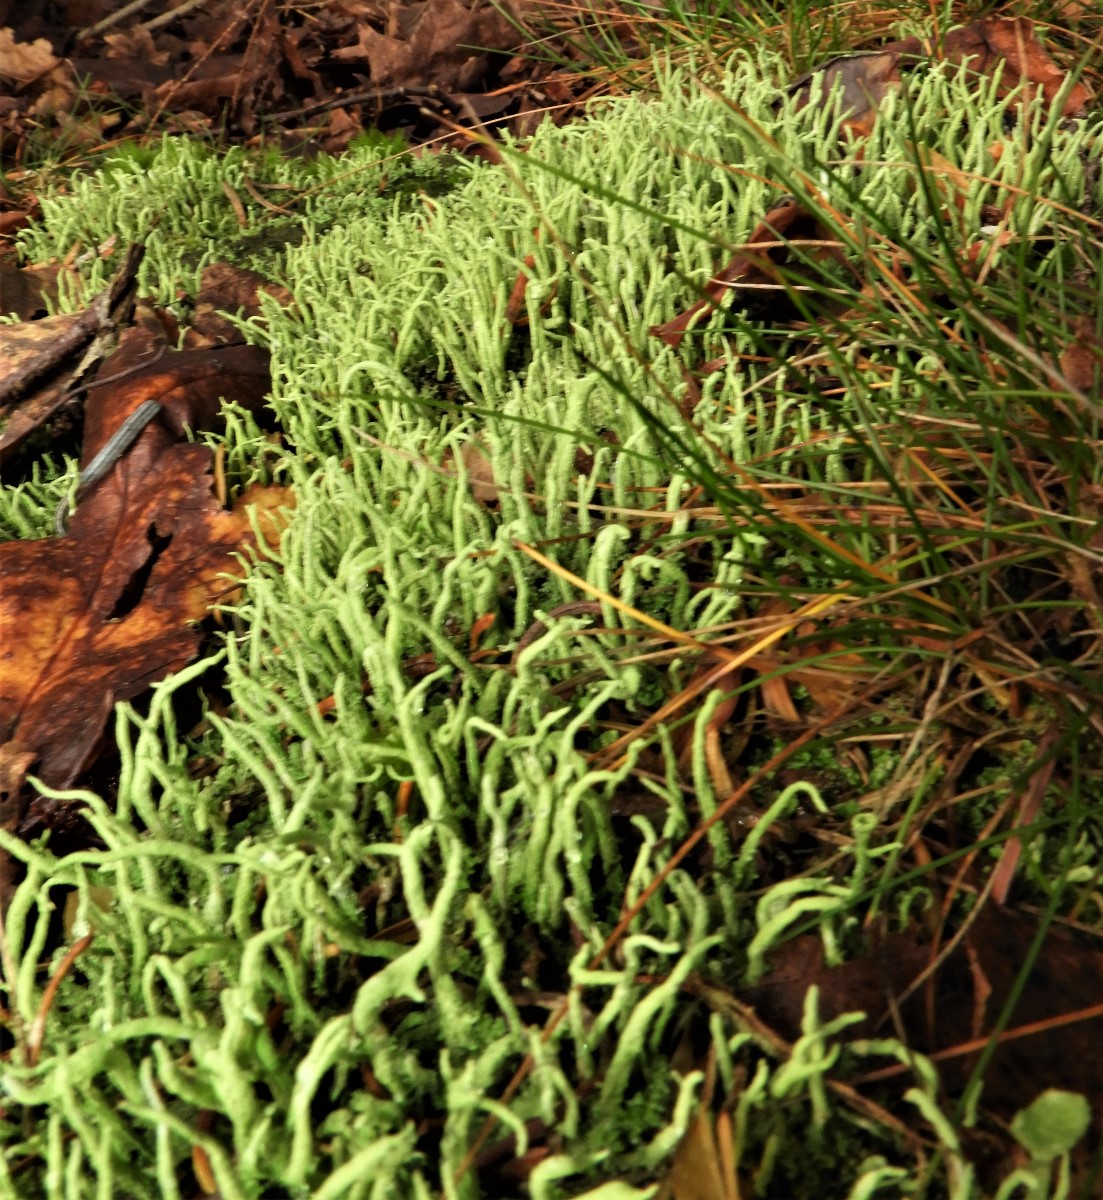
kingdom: Fungi
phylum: Ascomycota
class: Lecanoromycetes
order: Lecanorales
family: Cladoniaceae
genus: Cladonia
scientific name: Cladonia scabriuscula
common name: ru bægerlav
